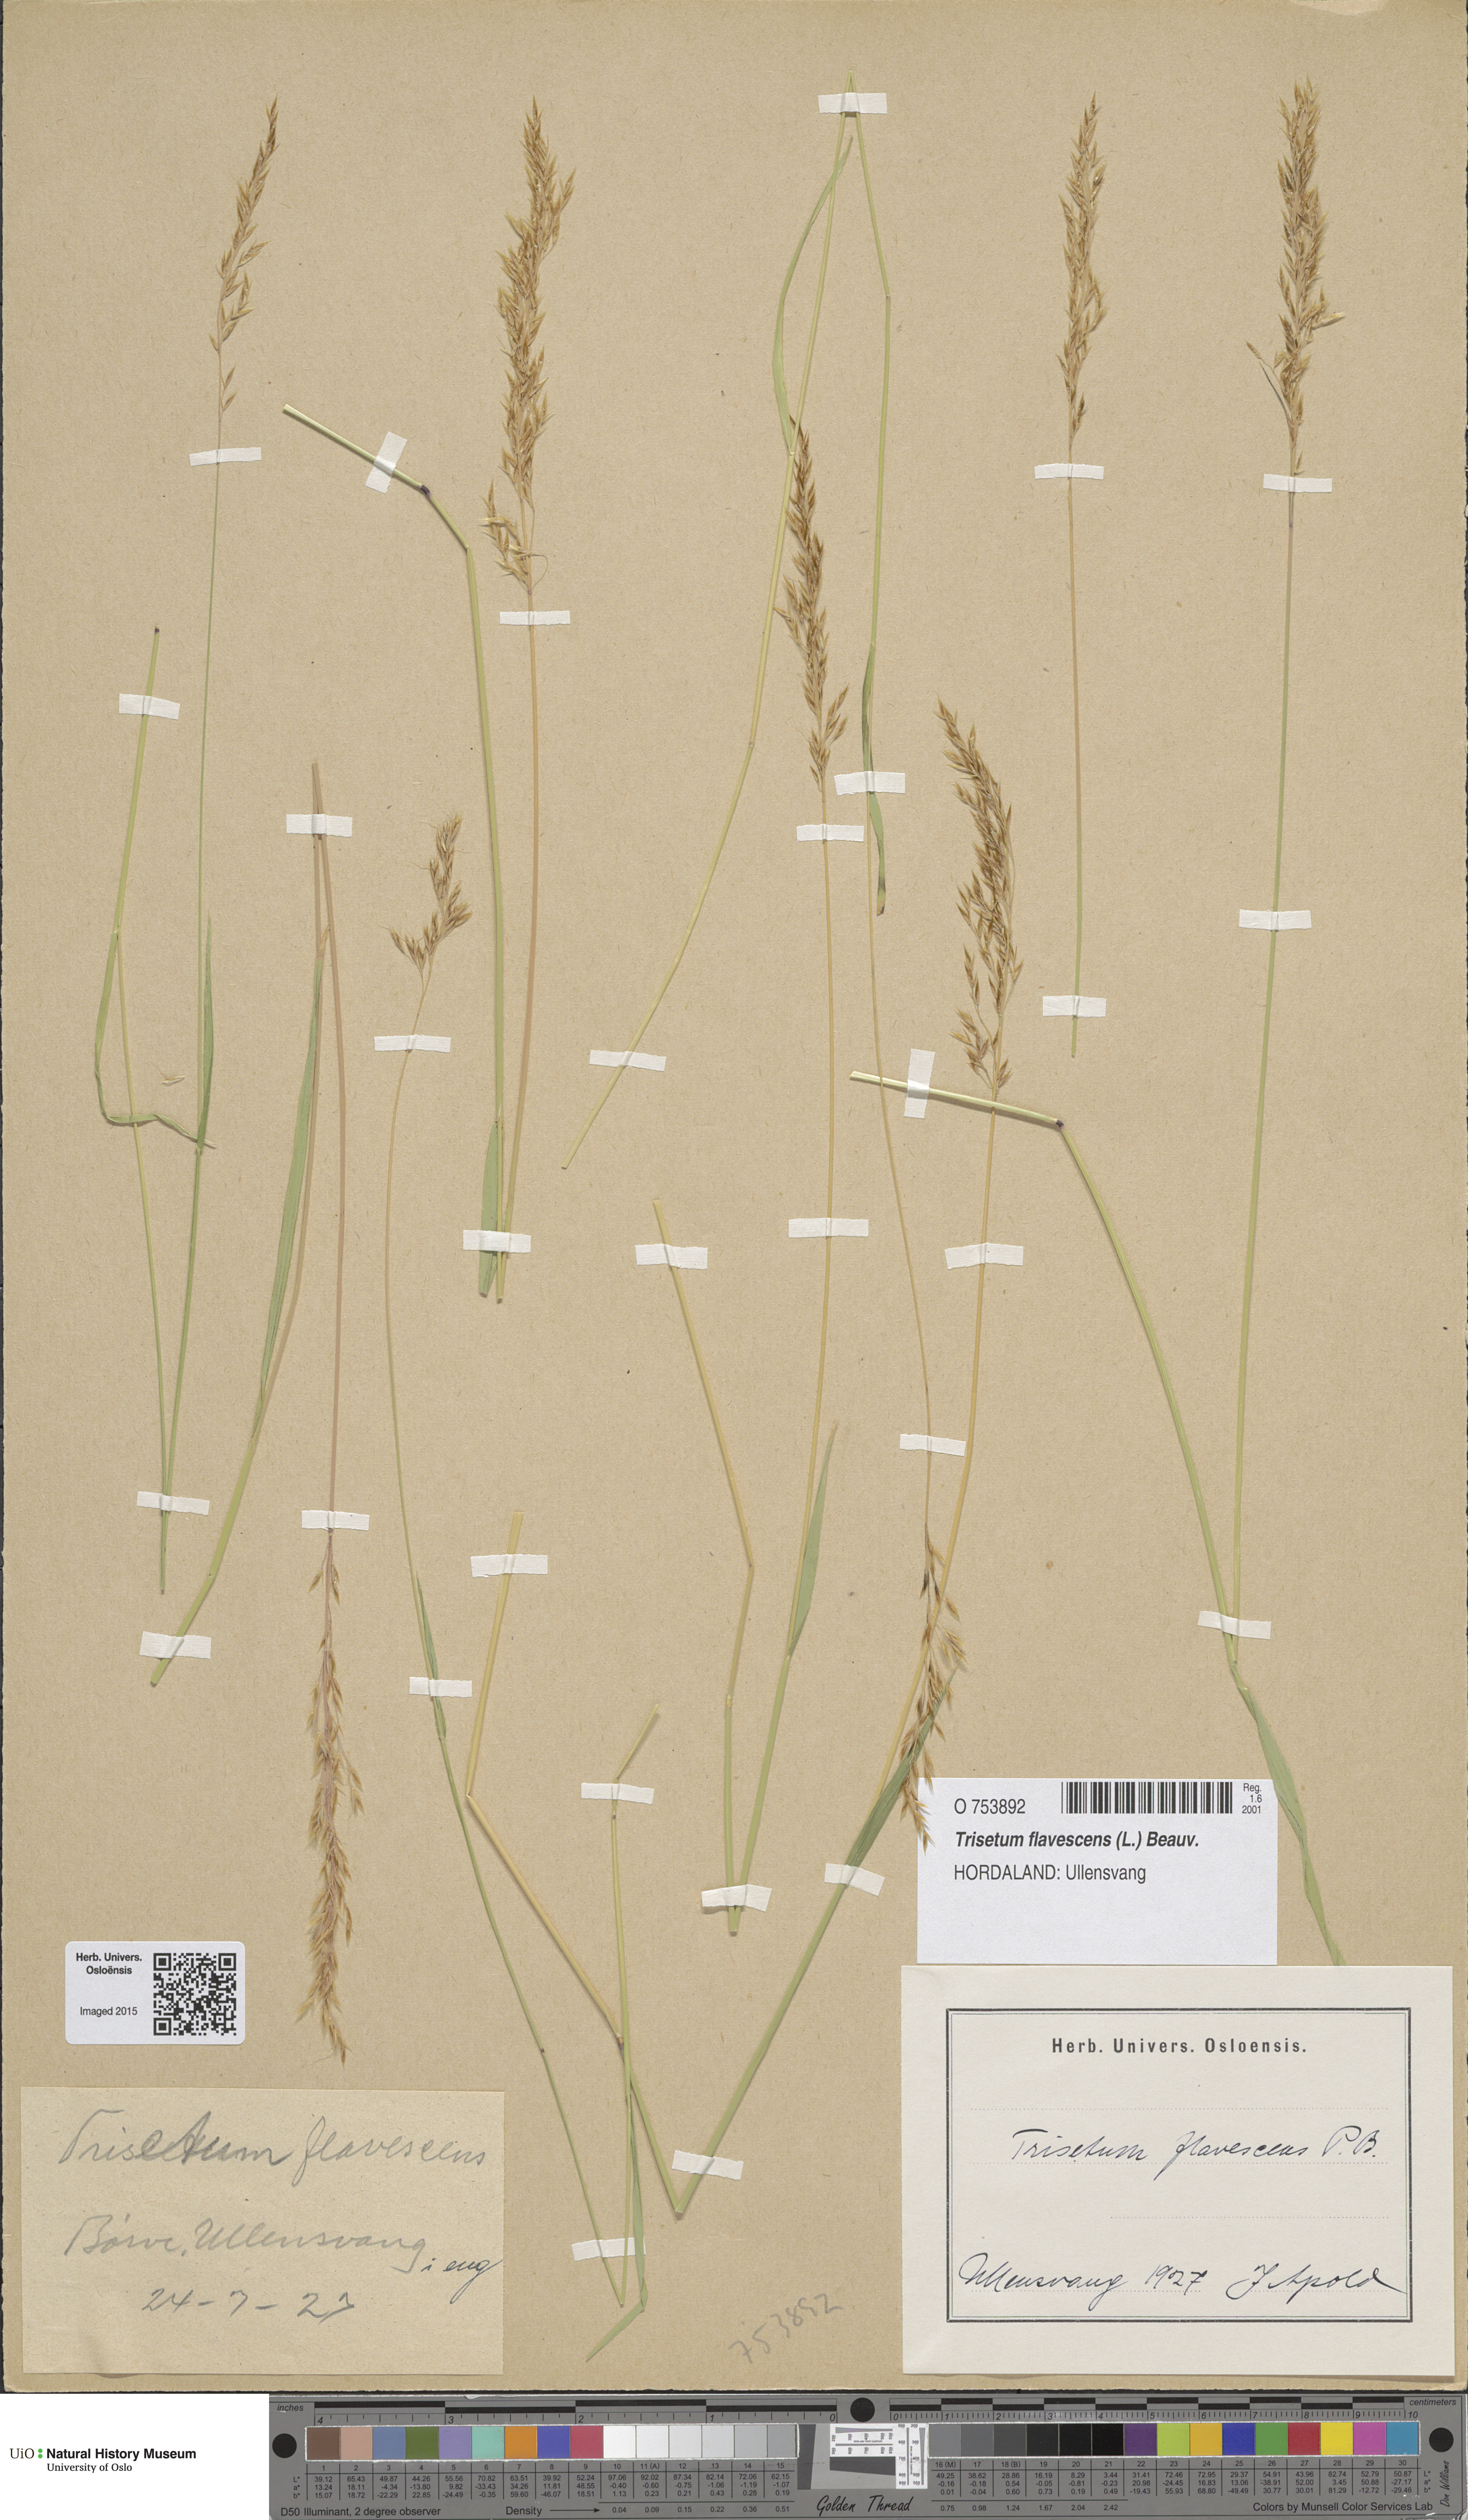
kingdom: Plantae
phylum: Tracheophyta
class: Liliopsida
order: Poales
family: Poaceae
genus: Trisetum
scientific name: Trisetum flavescens
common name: Yellow oat-grass
